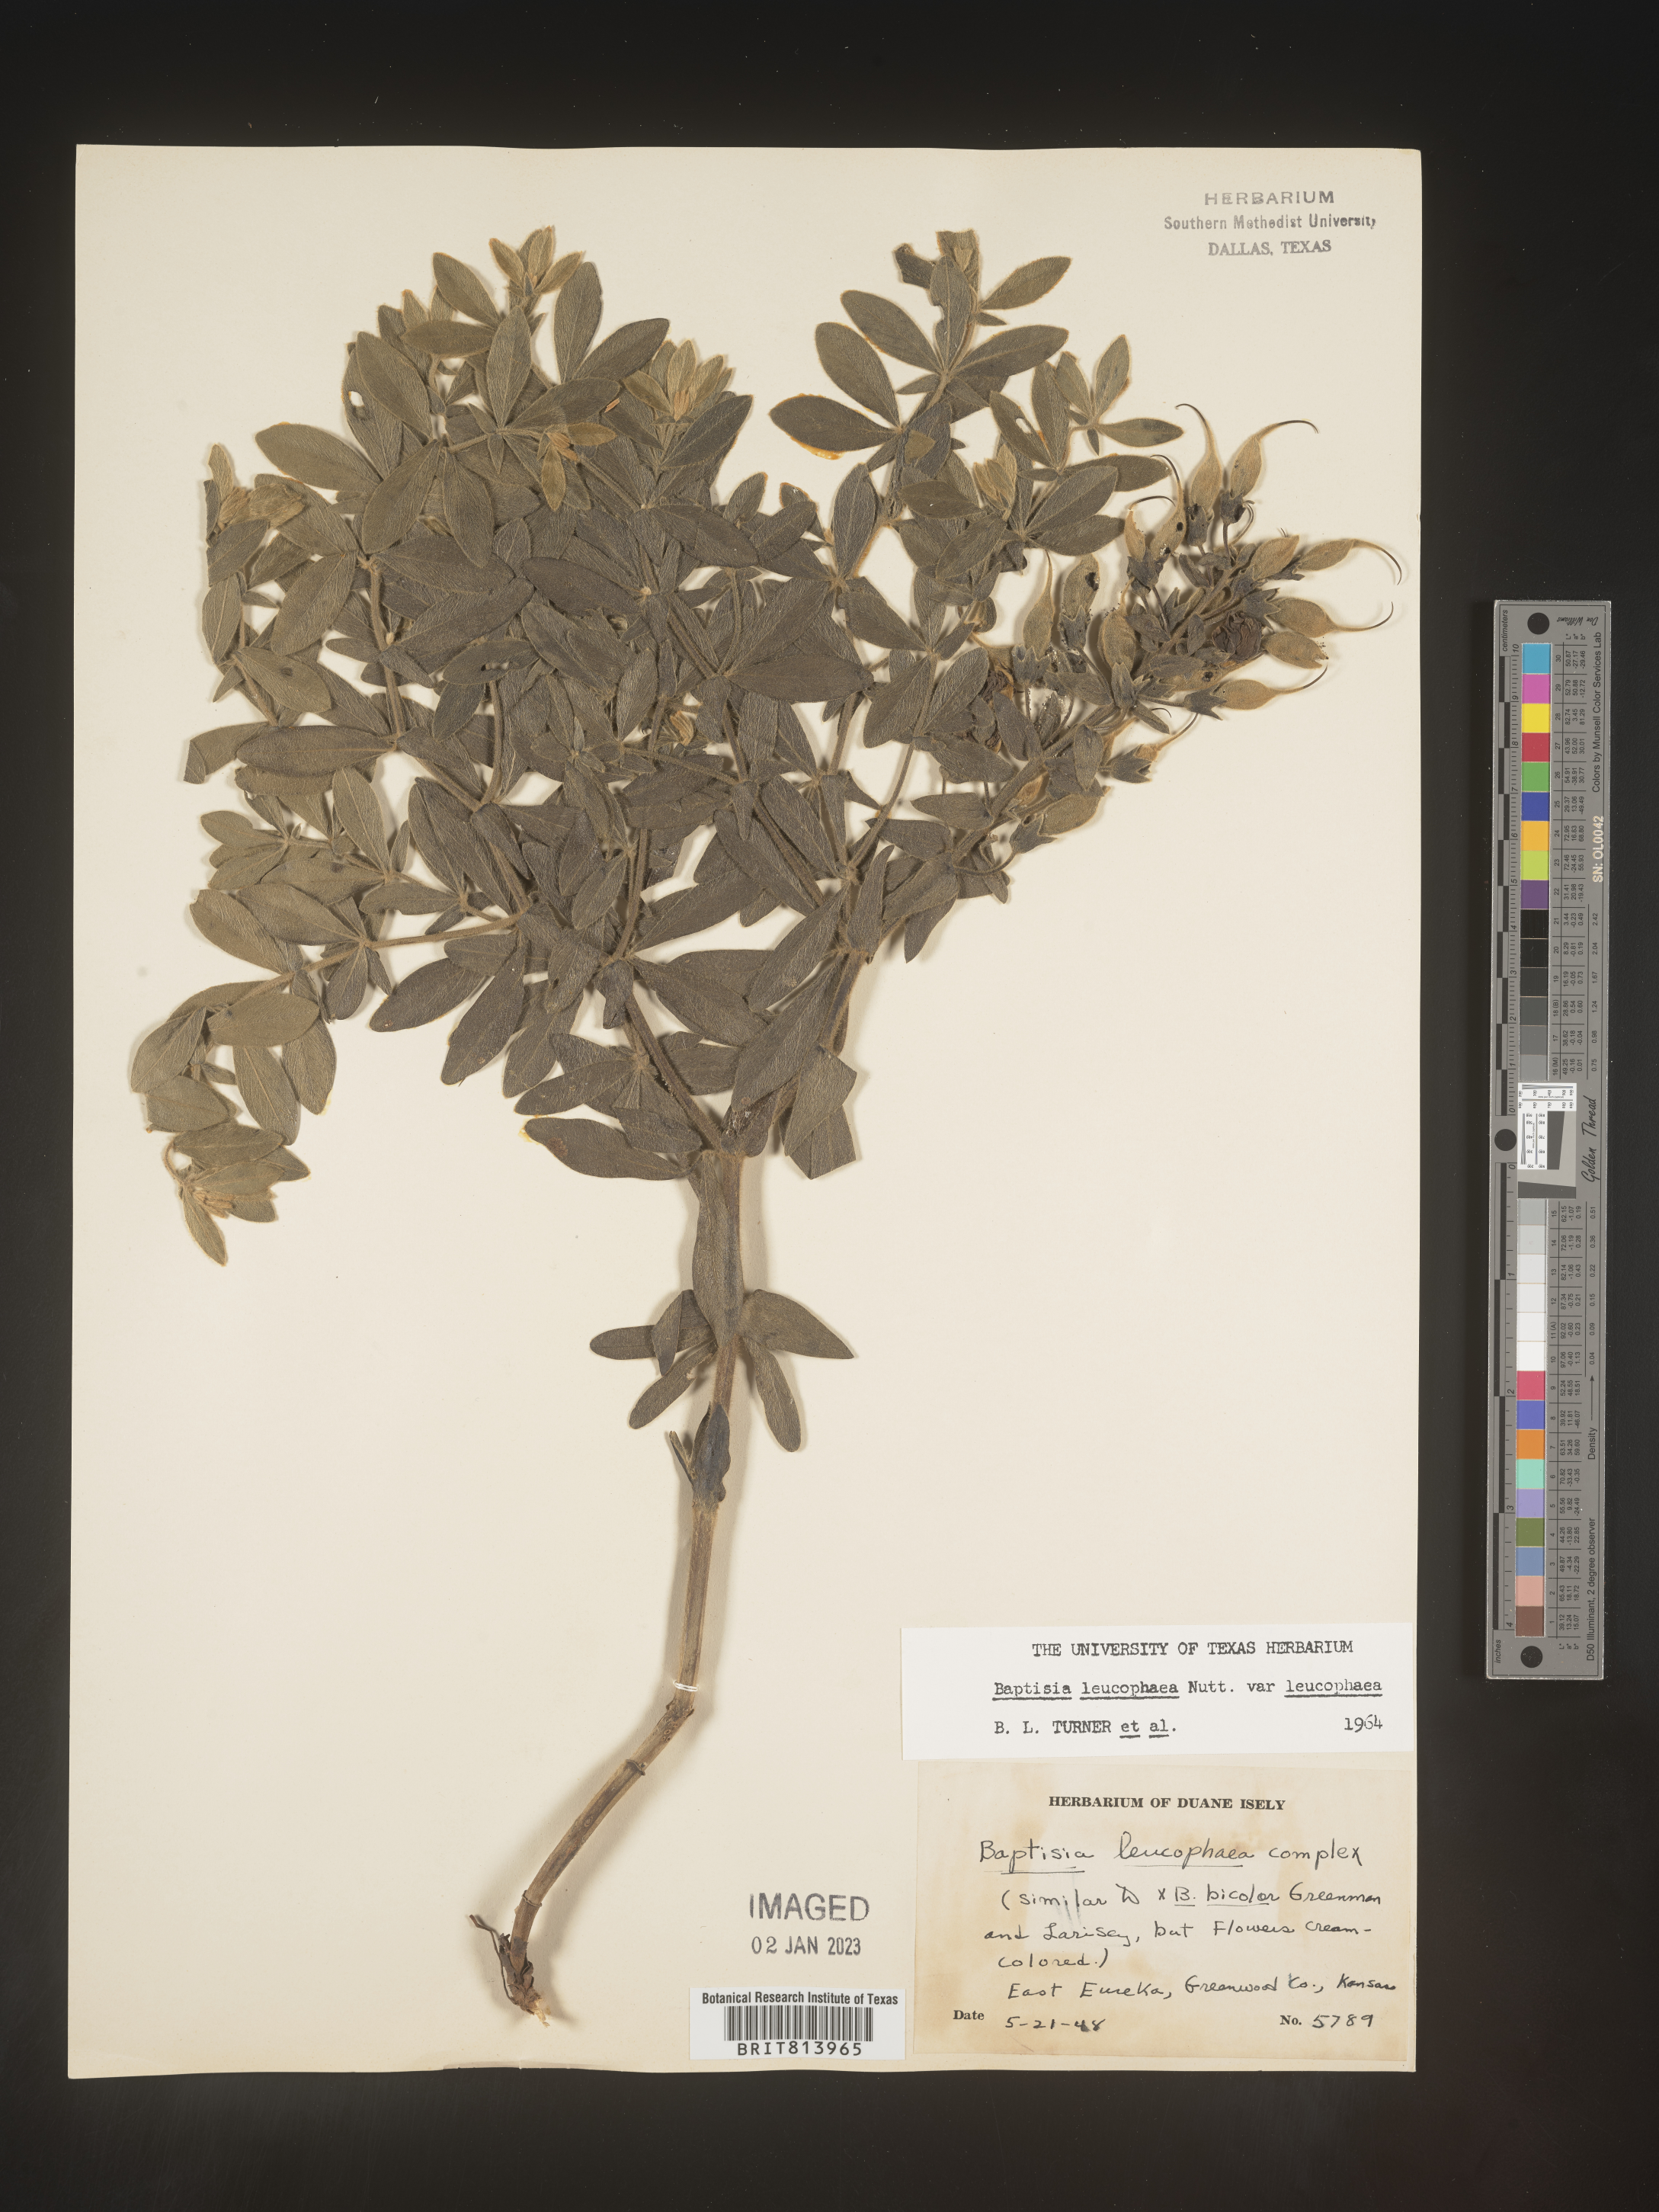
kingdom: Plantae
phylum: Tracheophyta
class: Magnoliopsida
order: Fabales
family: Fabaceae
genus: Baptisia
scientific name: Baptisia bracteata
